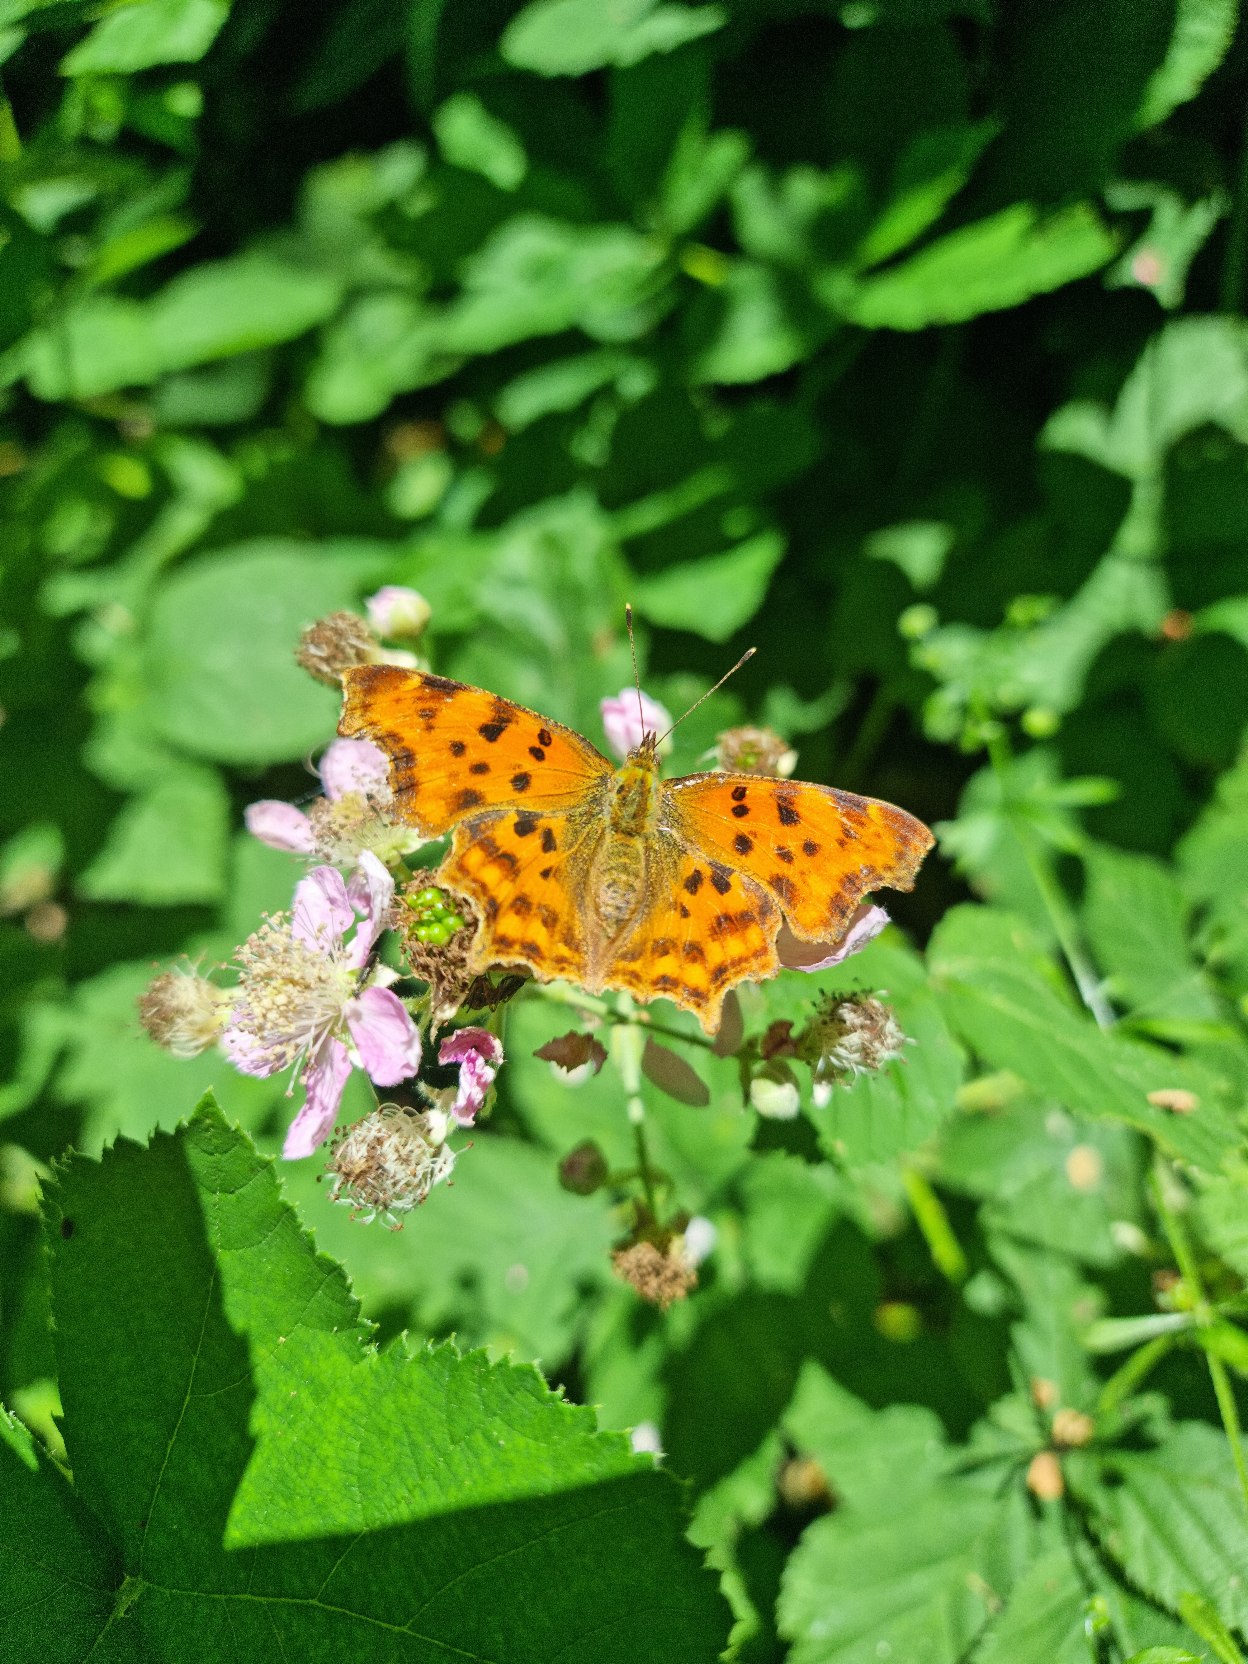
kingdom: Animalia
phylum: Arthropoda
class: Insecta
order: Lepidoptera
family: Nymphalidae
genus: Polygonia
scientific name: Polygonia c-album
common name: Det hvide C
